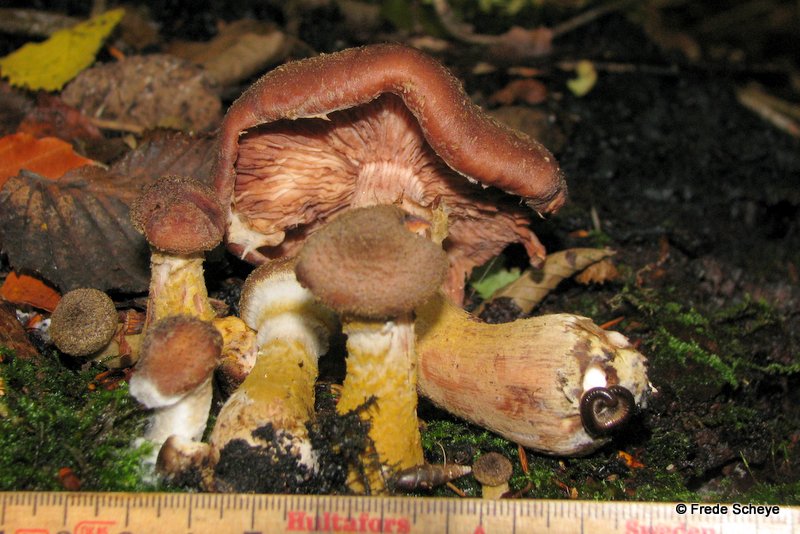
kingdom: Fungi
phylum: Basidiomycota
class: Agaricomycetes
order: Agaricales
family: Physalacriaceae
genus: Armillaria
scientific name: Armillaria lutea
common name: køllestokket honningsvamp
